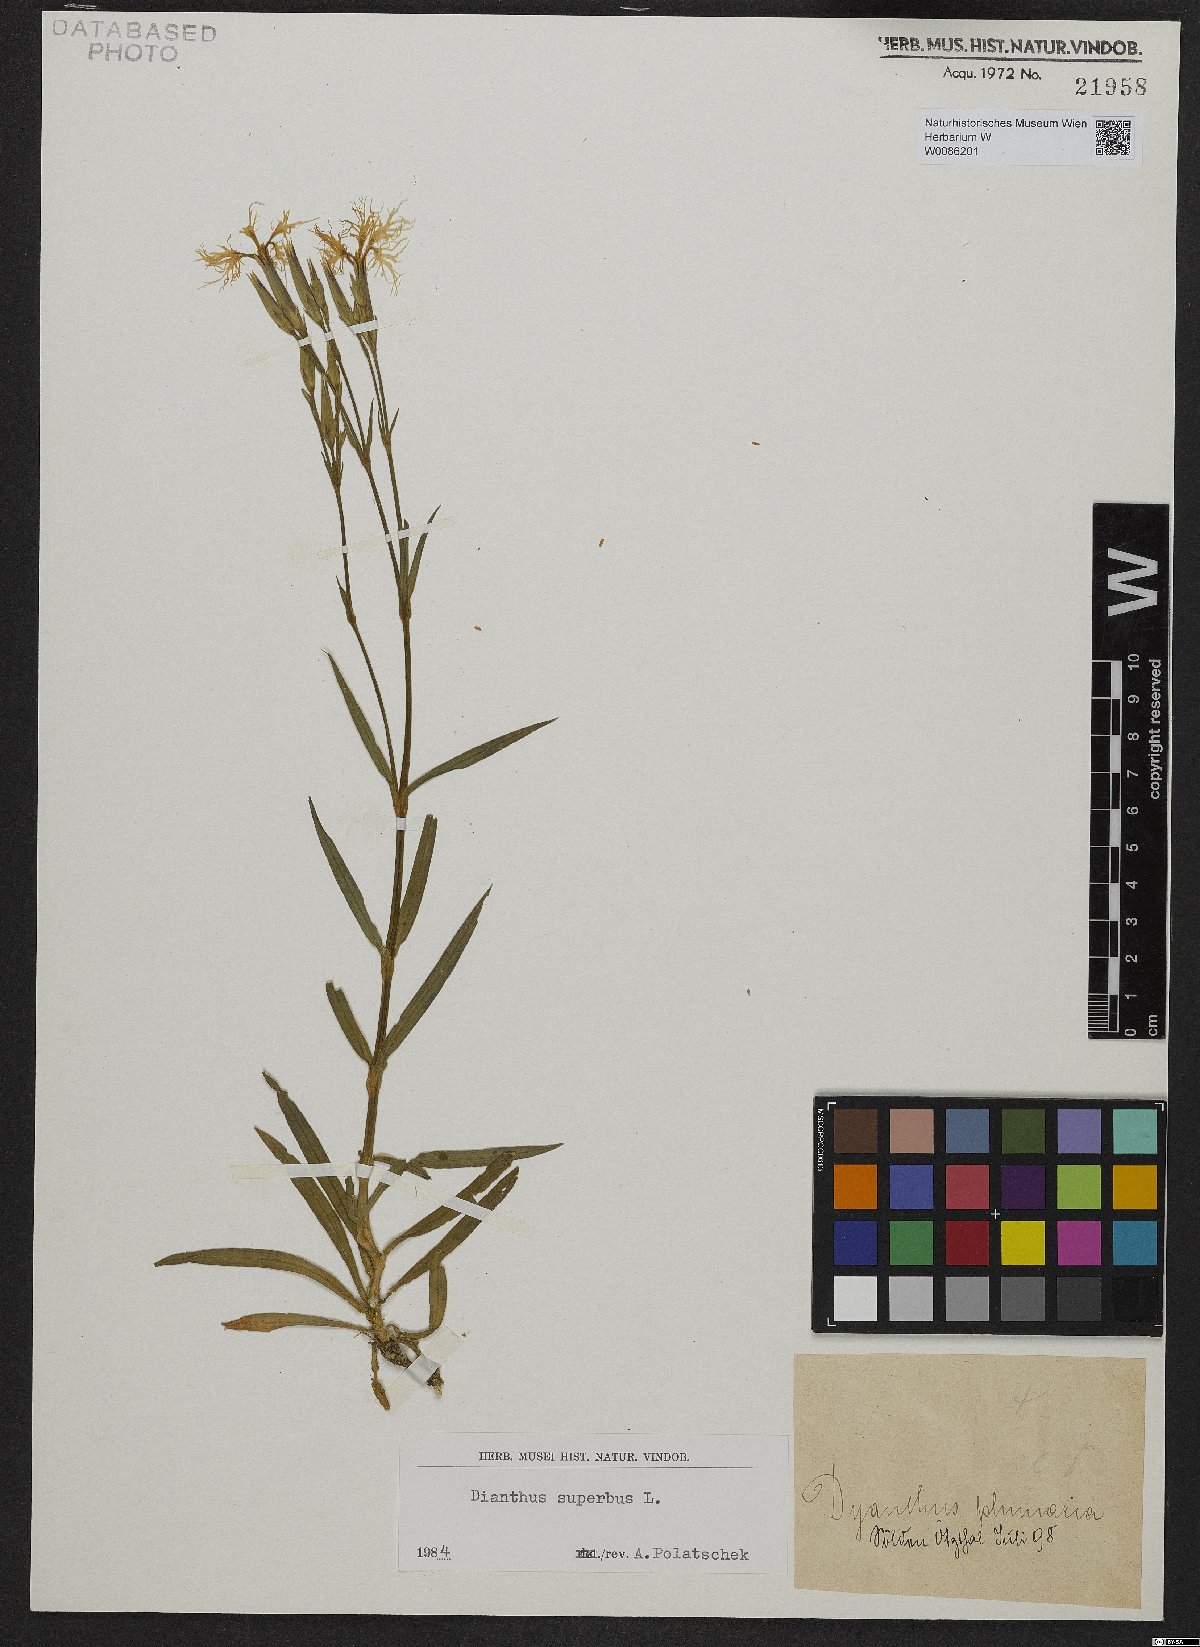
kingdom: Plantae
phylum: Tracheophyta
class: Magnoliopsida
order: Caryophyllales
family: Caryophyllaceae
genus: Dianthus
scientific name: Dianthus superbus
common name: Fringed pink
